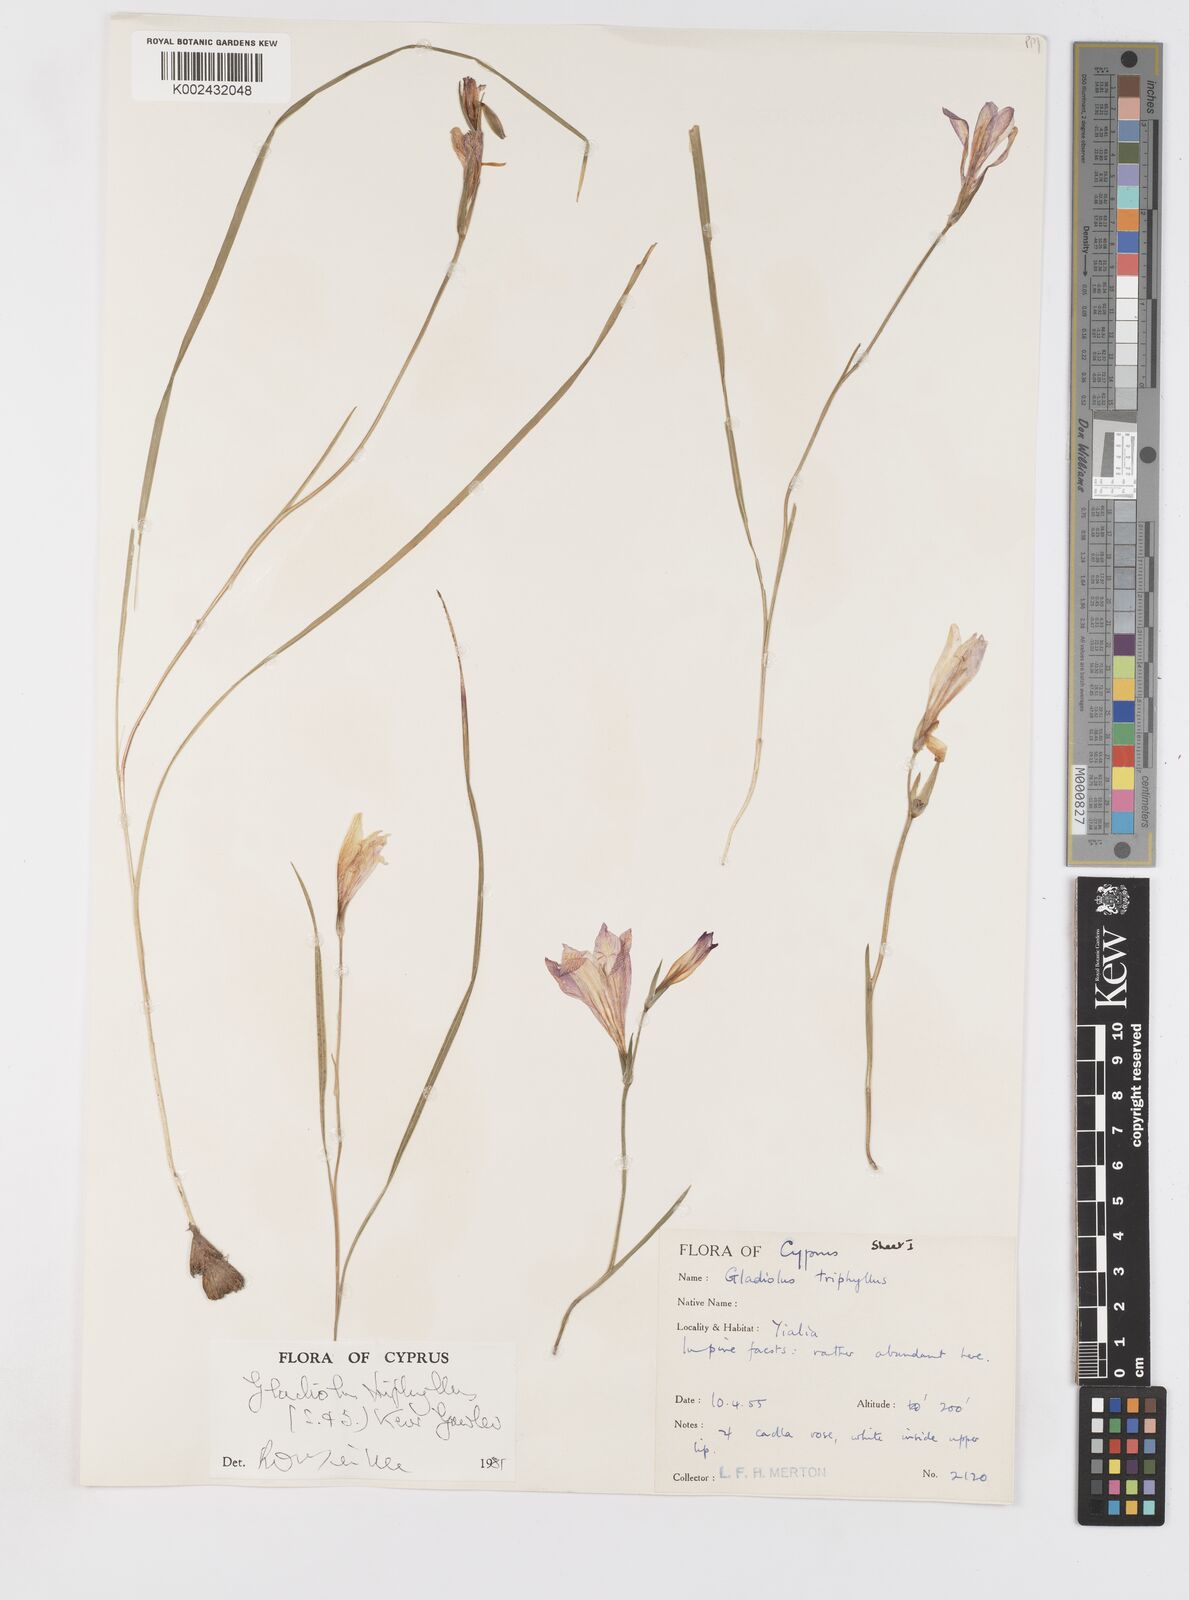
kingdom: Plantae
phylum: Tracheophyta
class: Liliopsida
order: Asparagales
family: Iridaceae
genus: Gladiolus
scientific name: Gladiolus triphyllus
